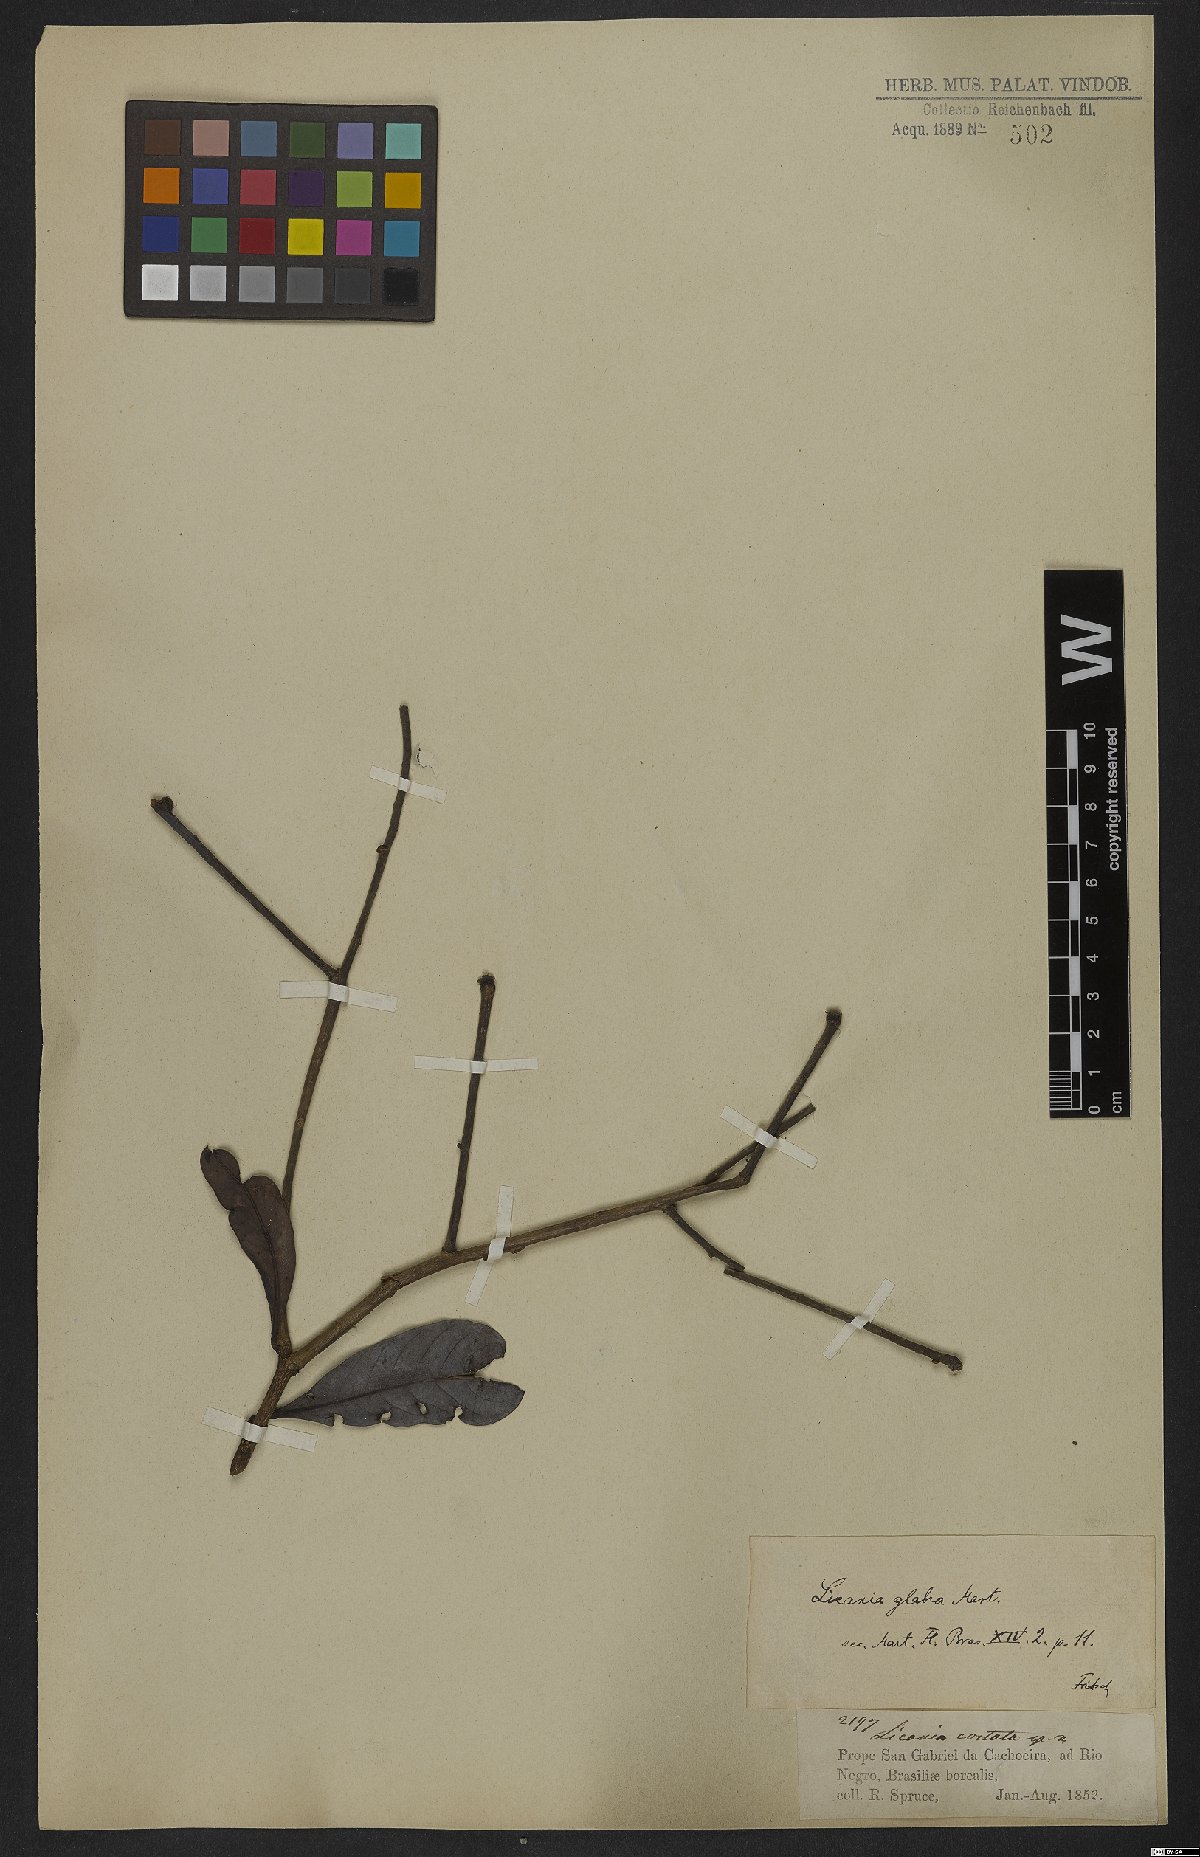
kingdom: Plantae
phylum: Tracheophyta
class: Magnoliopsida
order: Malpighiales
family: Chrysobalanaceae
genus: Hymenopus
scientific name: Hymenopus heteromorphus
